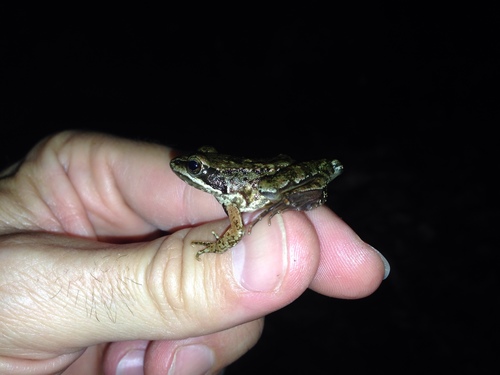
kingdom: Animalia
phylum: Chordata
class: Amphibia
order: Anura
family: Ranidae
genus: Rana
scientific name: Rana iberica
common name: Iberian frog
